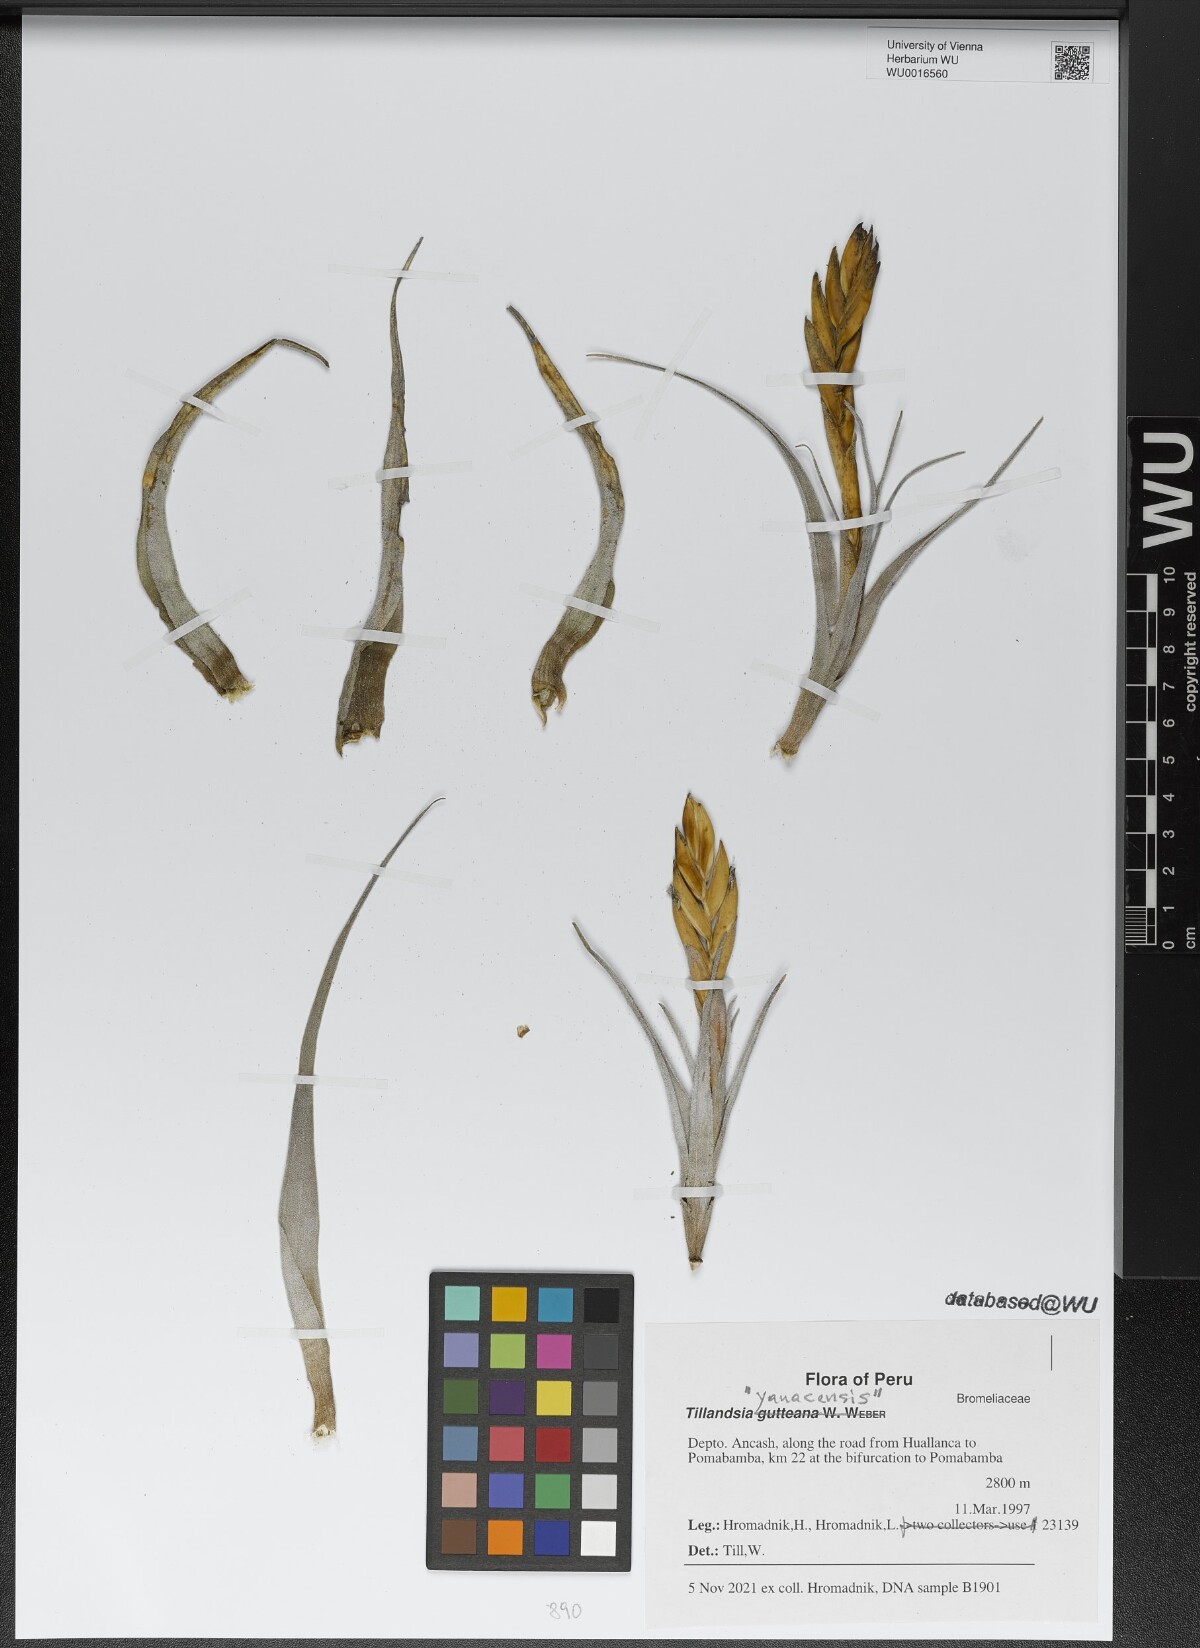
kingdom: Plantae
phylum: Tracheophyta
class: Liliopsida
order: Poales
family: Bromeliaceae
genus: Tillandsia
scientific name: Tillandsia
